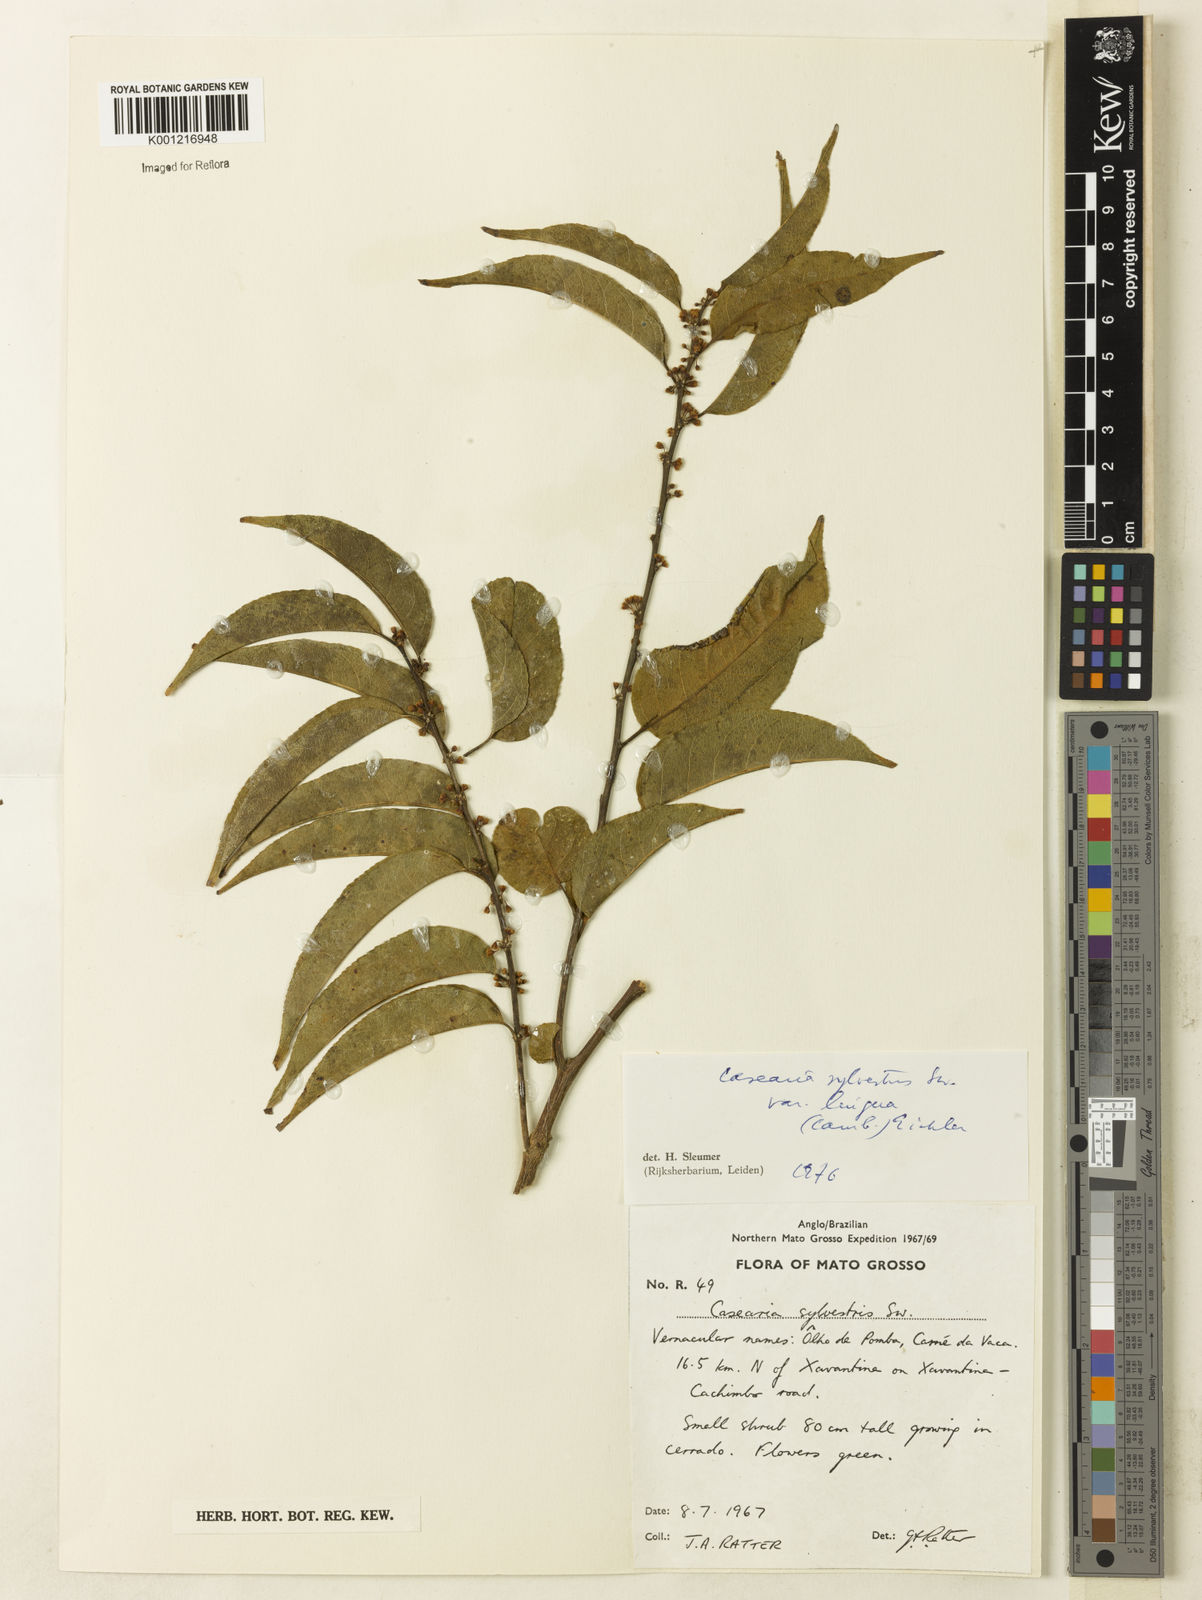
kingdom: Plantae
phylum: Tracheophyta
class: Magnoliopsida
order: Malpighiales
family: Salicaceae
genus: Casearia
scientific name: Casearia sylvestris
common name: Wild sage
